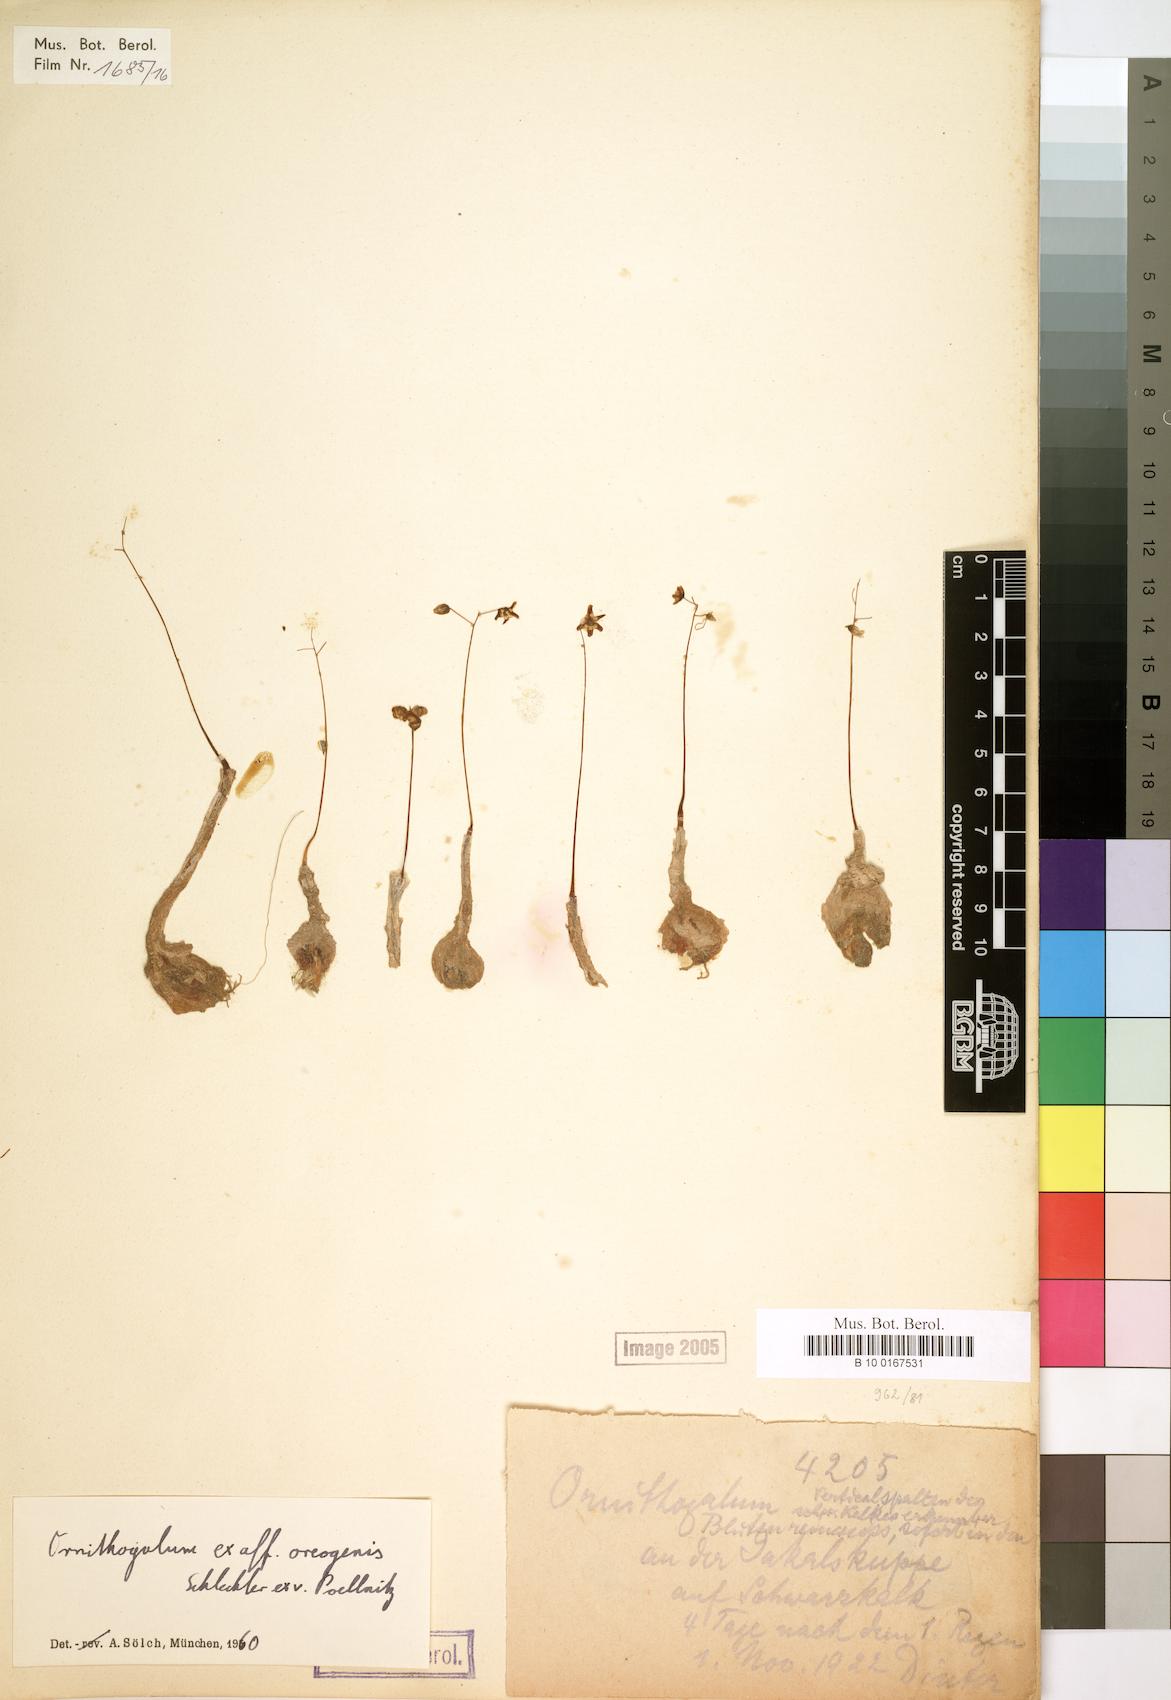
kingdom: Plantae
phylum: Tracheophyta
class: Liliopsida
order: Liliales
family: Liliaceae
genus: Ornithogalum
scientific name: Ornithogalum
